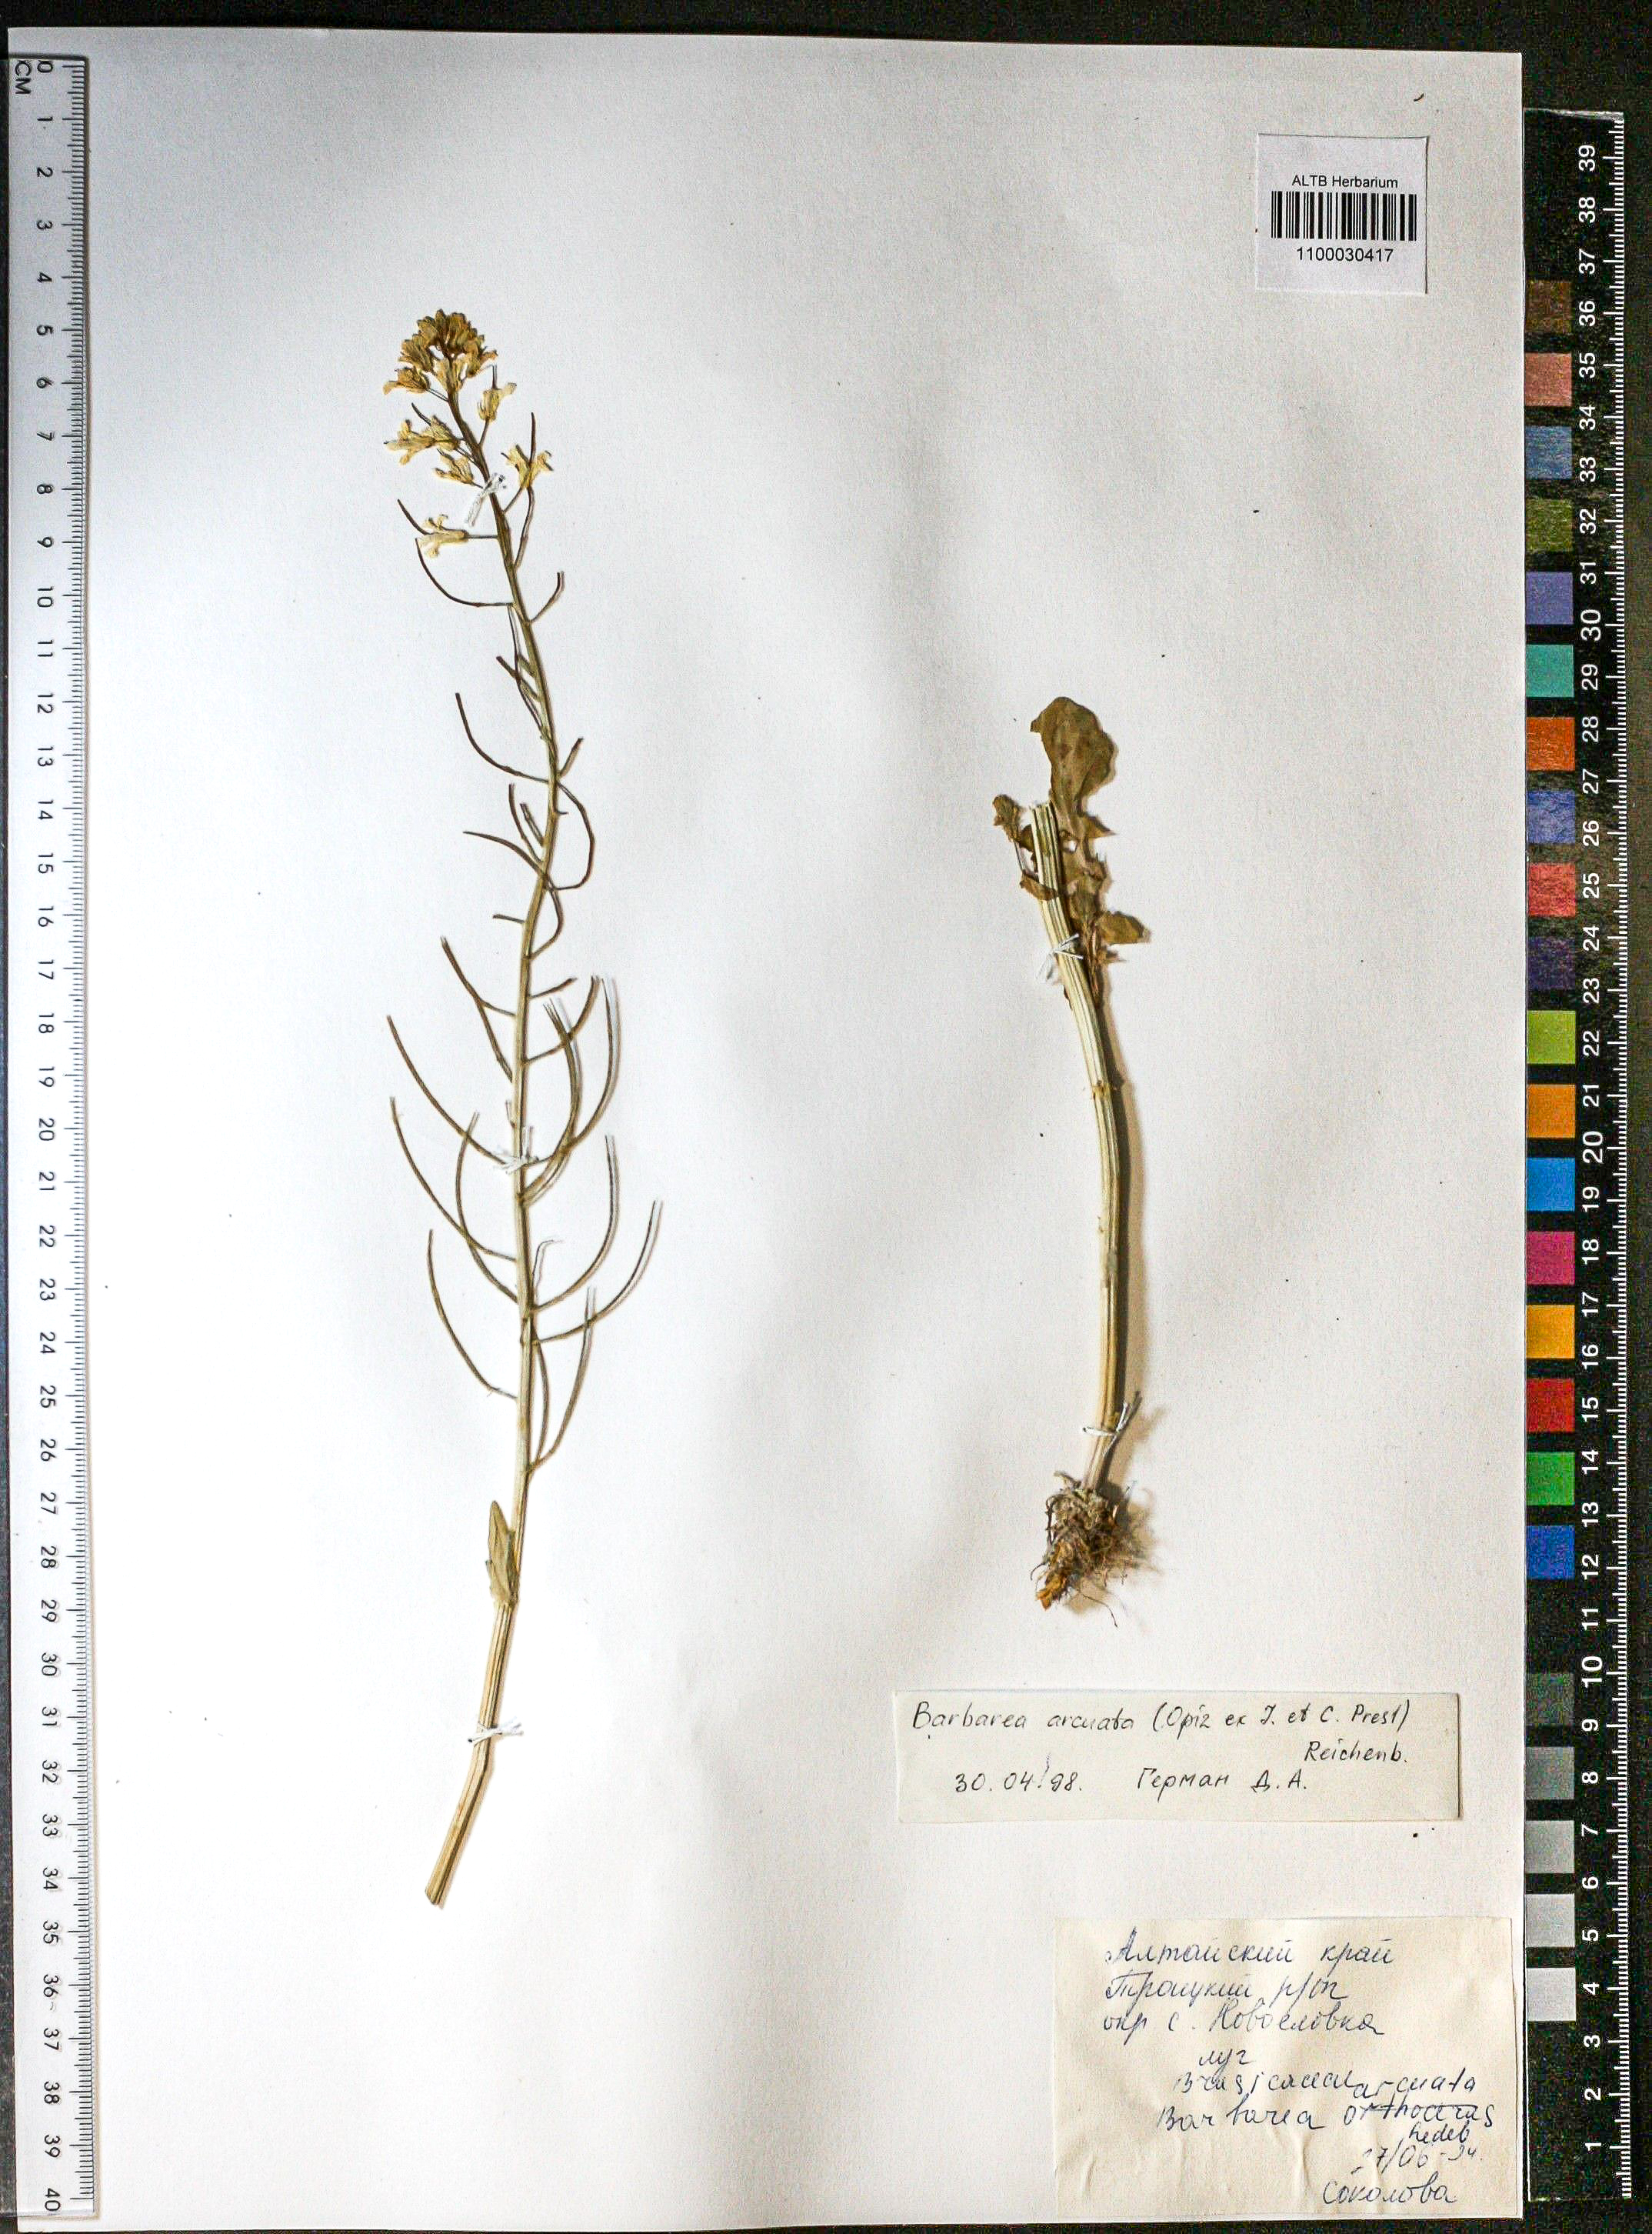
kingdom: Plantae
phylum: Tracheophyta
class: Magnoliopsida
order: Brassicales
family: Brassicaceae
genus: Barbarea
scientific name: Barbarea vulgaris
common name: Cressy-greens
